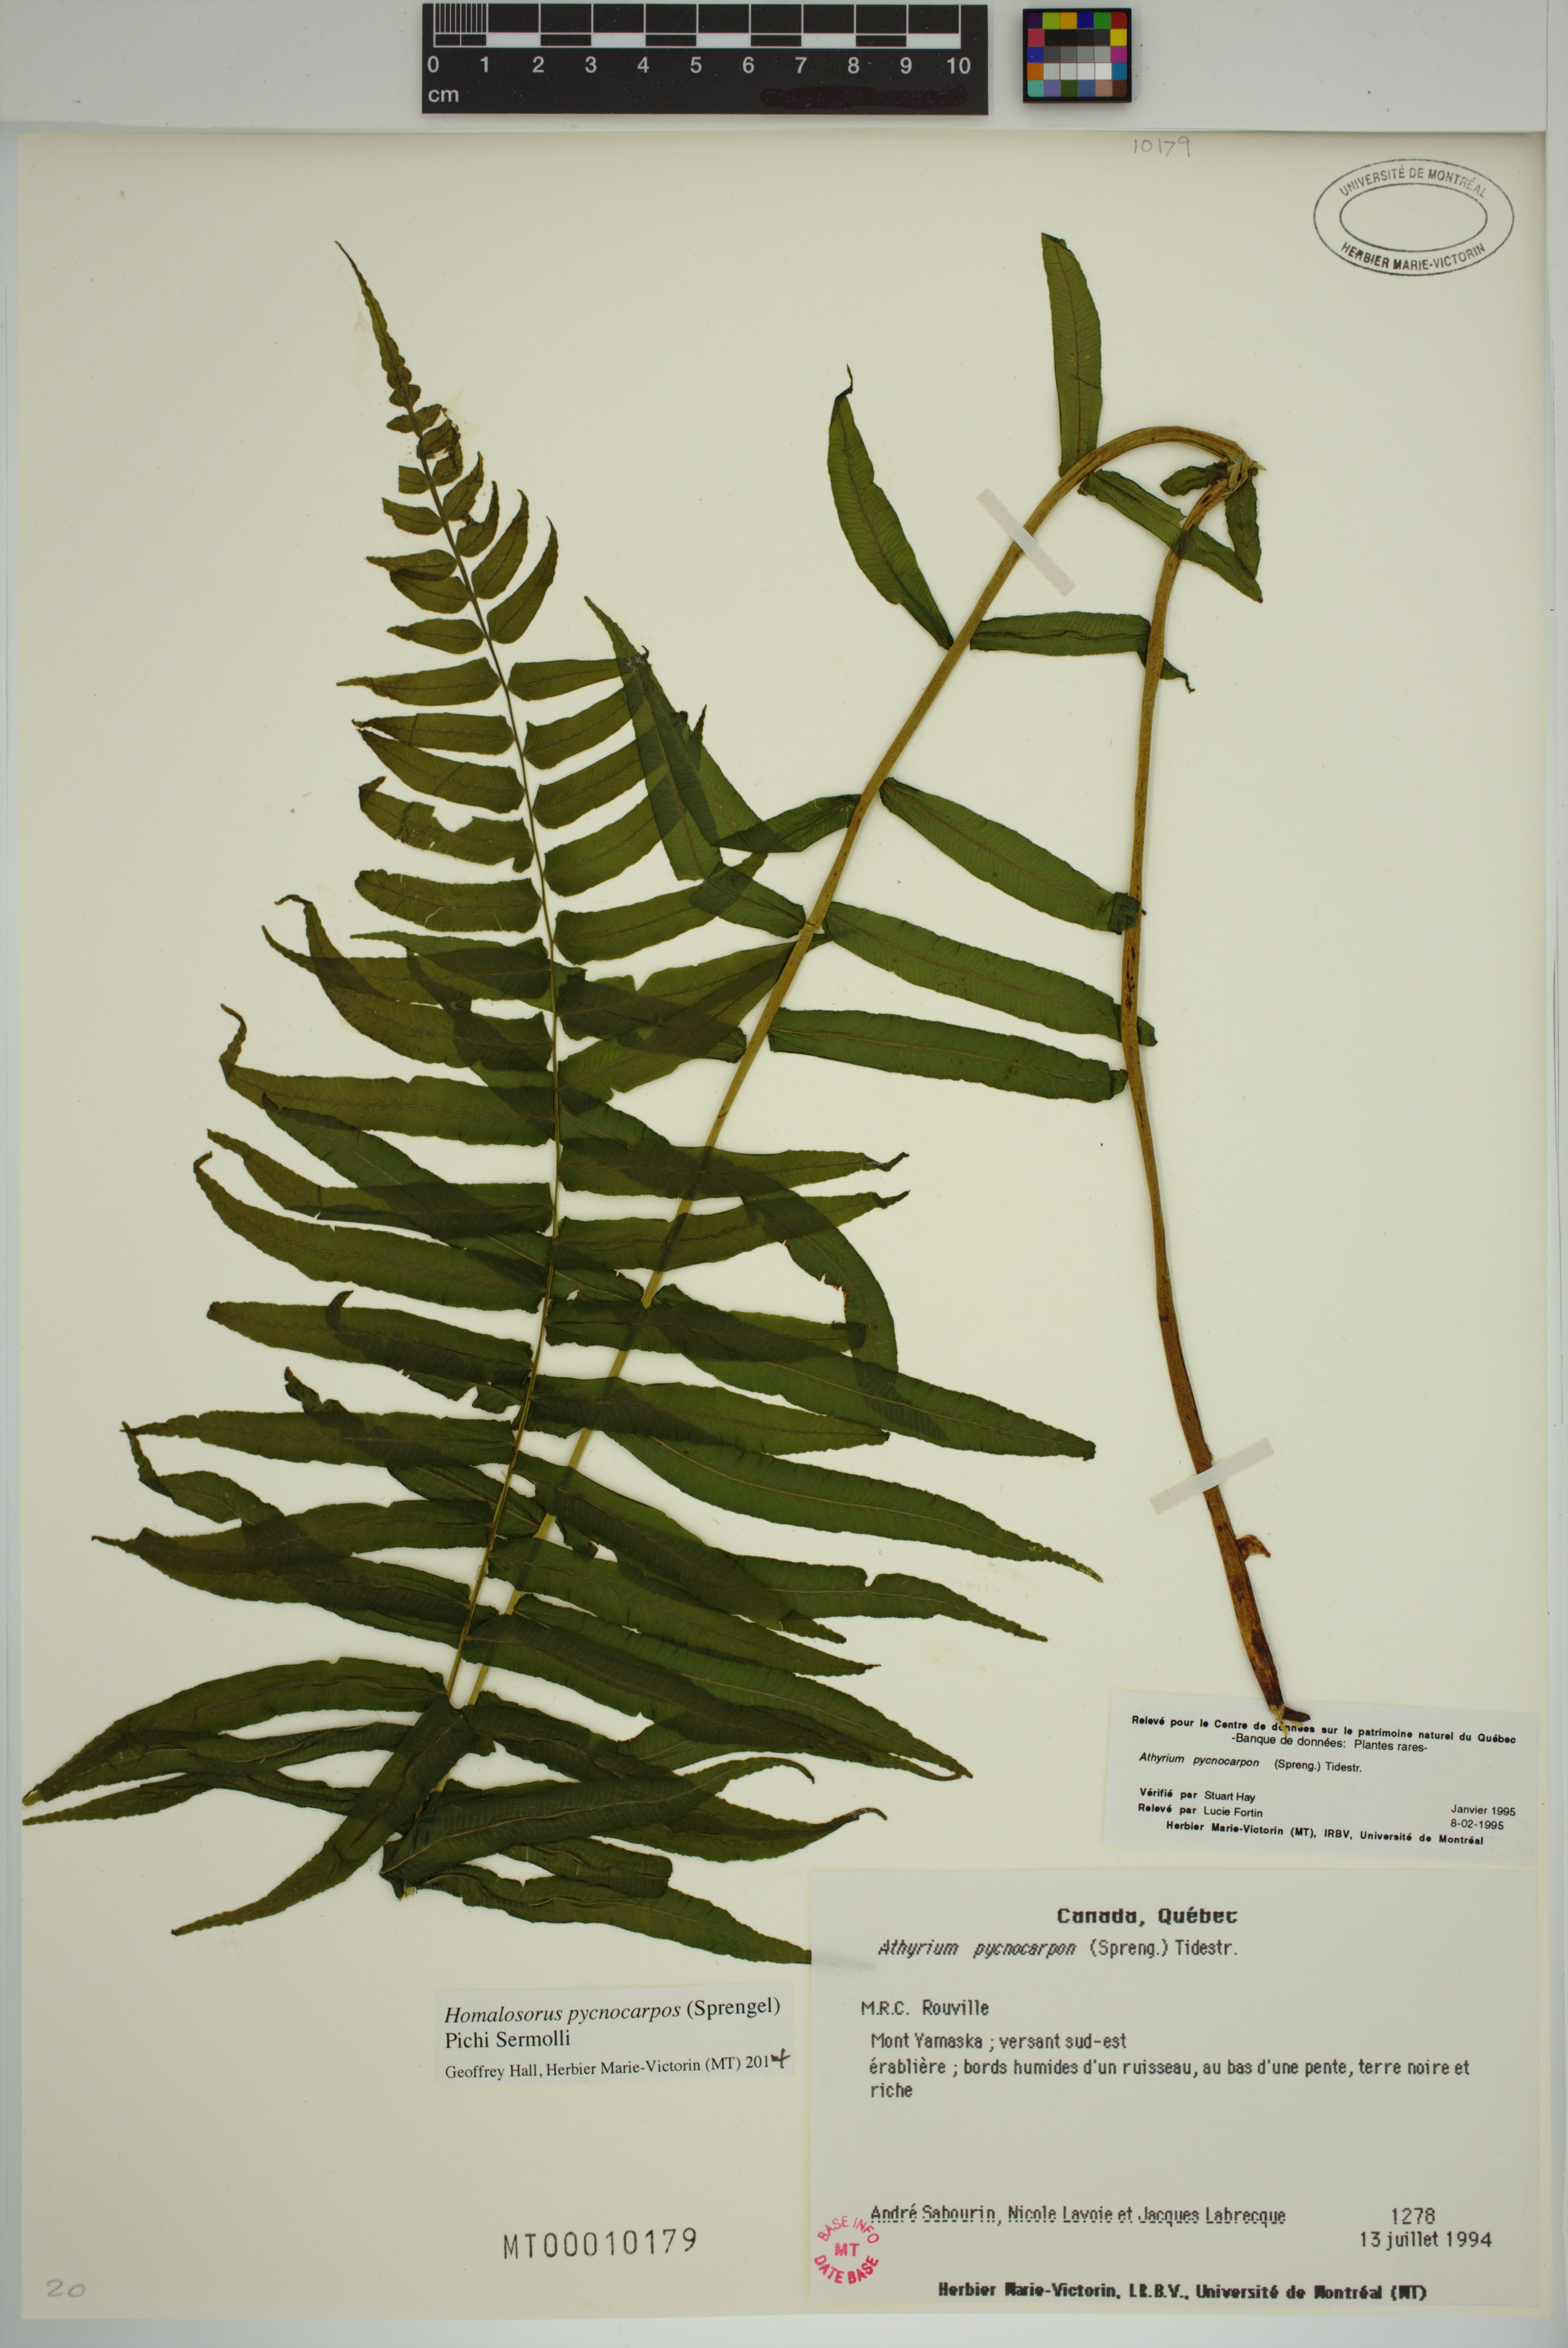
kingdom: Plantae
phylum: Tracheophyta
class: Polypodiopsida
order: Polypodiales
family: Diplaziopsidaceae
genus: Homalosorus
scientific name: Homalosorus pycnocarpos
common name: Glade fern
